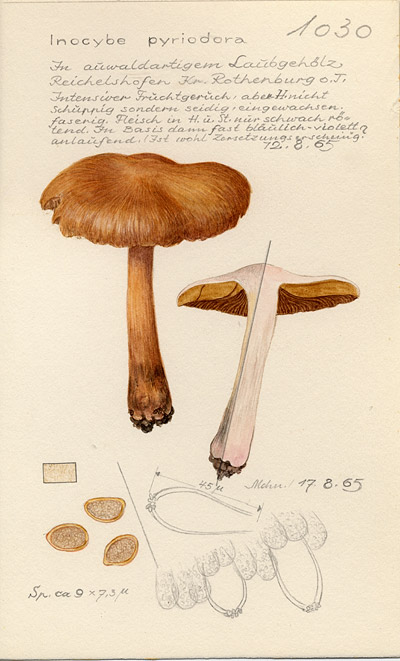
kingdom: Fungi
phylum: Basidiomycota
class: Agaricomycetes
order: Agaricales
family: Inocybaceae
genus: Inocybe
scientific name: Inocybe fraudans
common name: Pear fibrecap
